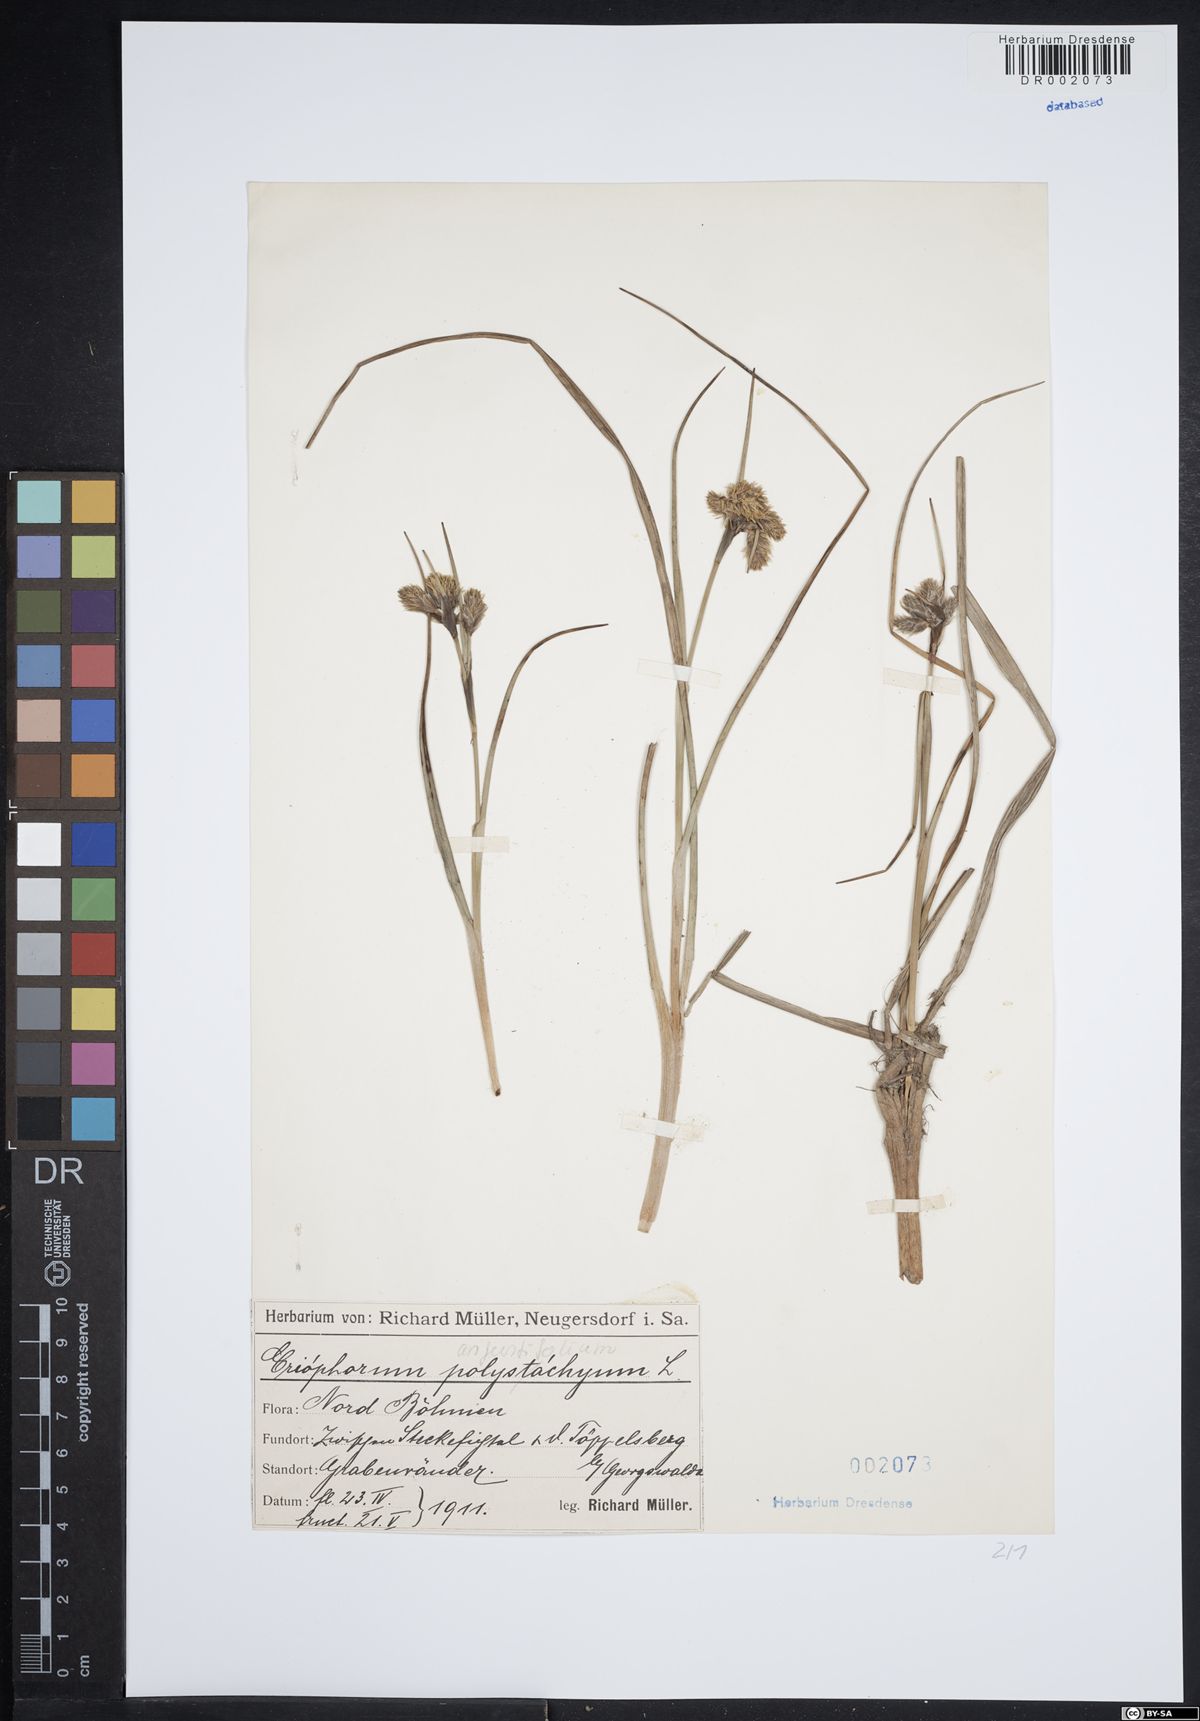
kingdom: Plantae
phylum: Tracheophyta
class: Liliopsida
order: Poales
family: Cyperaceae
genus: Eriophorum
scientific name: Eriophorum angustifolium
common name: Common cottongrass
